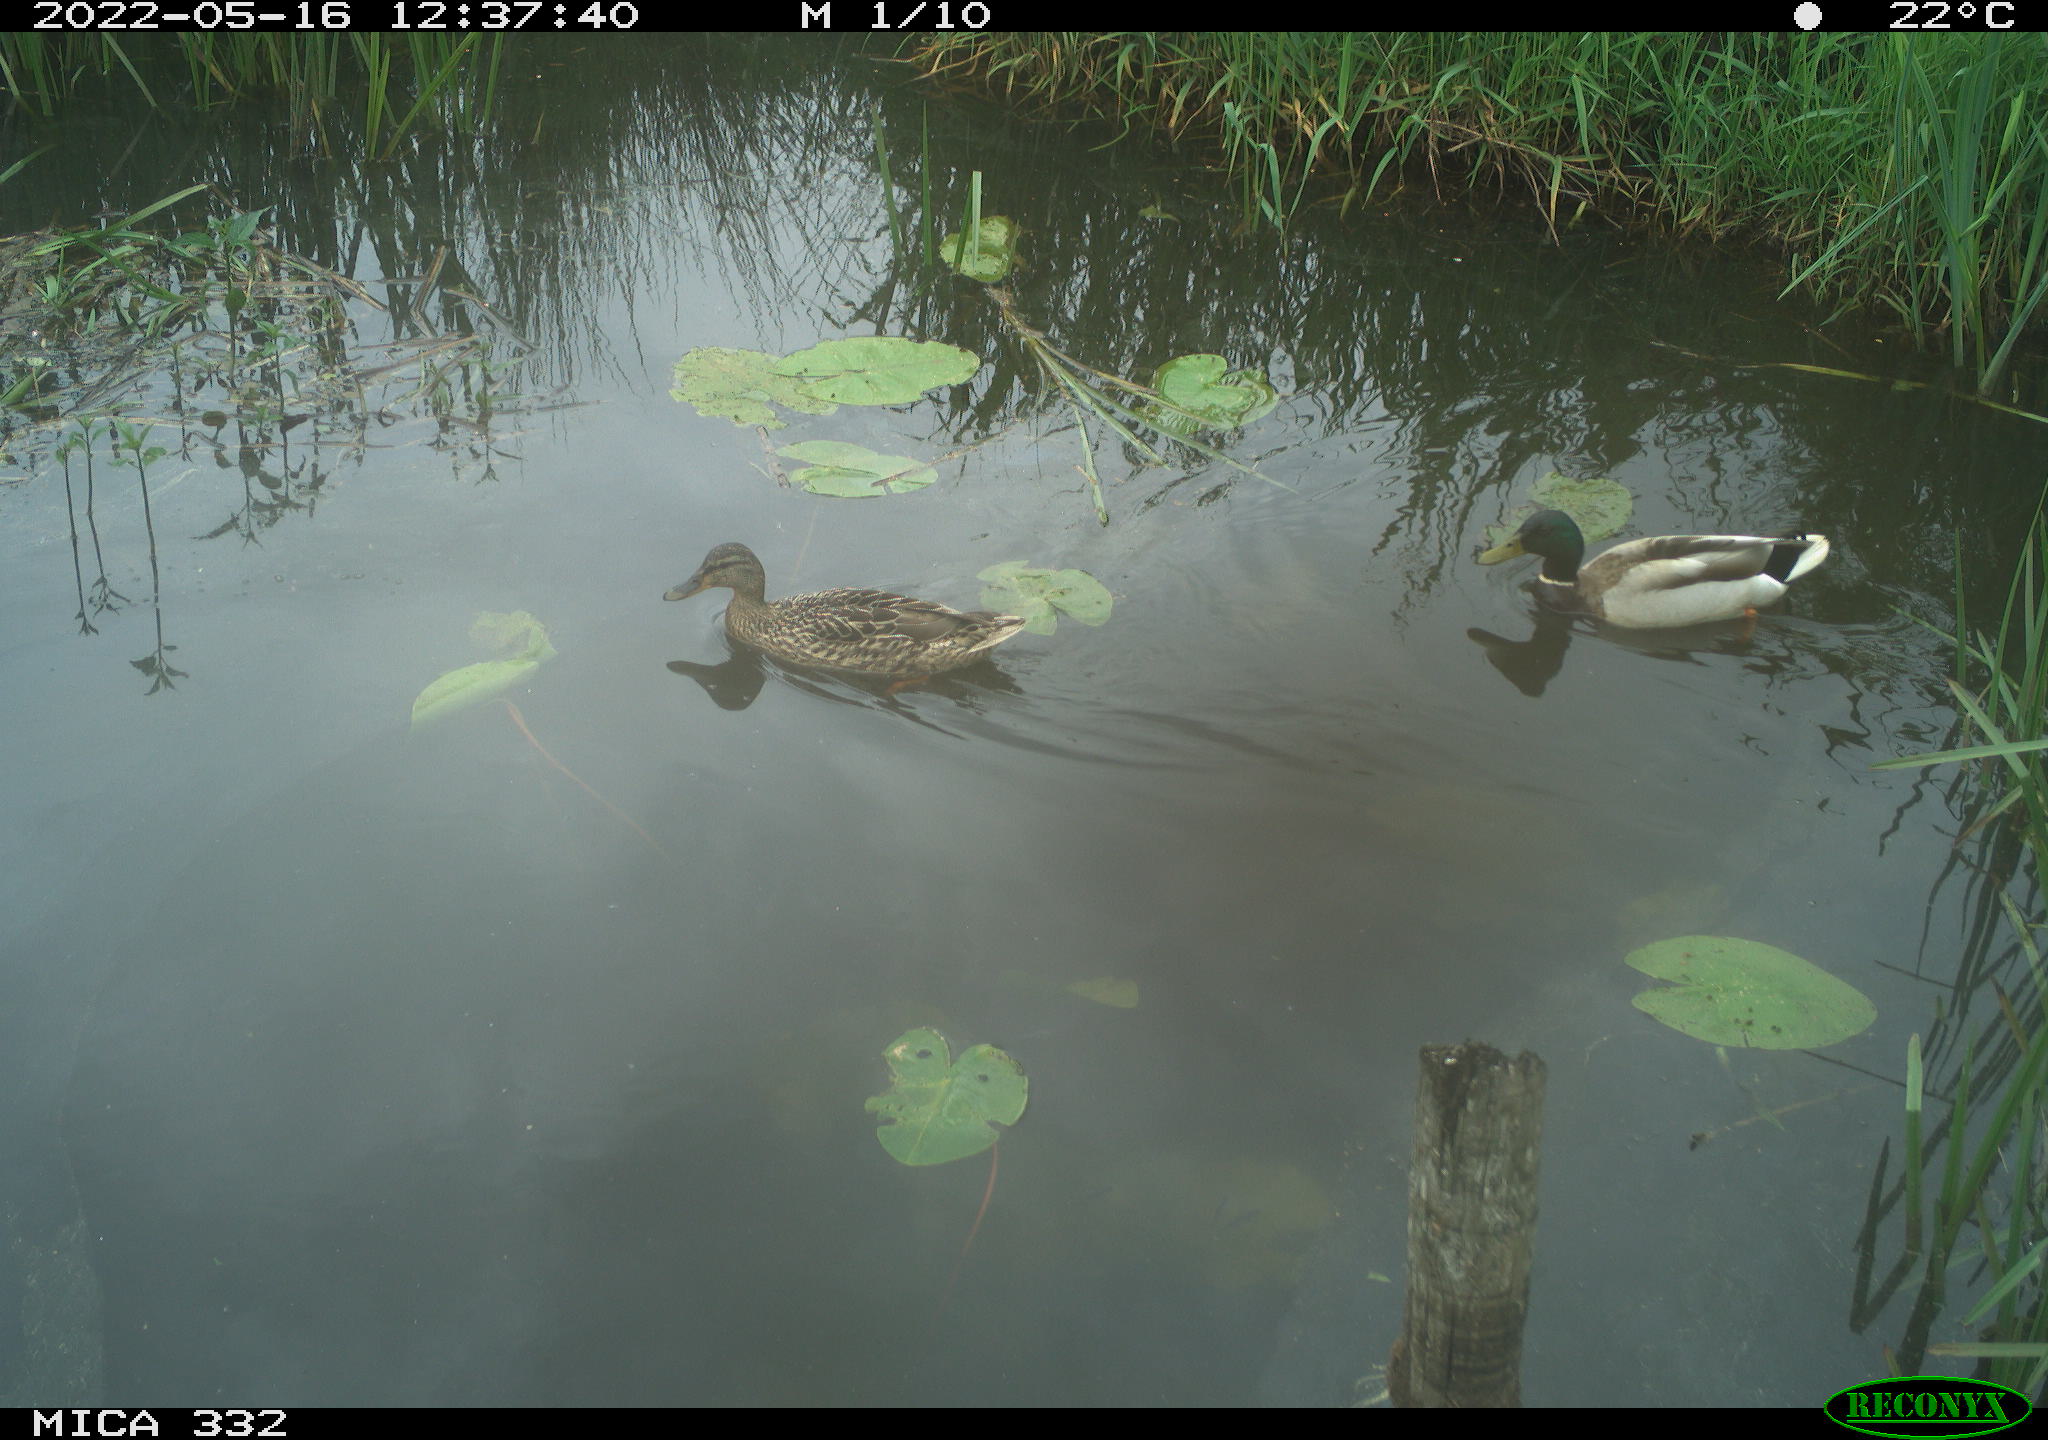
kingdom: Animalia
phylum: Chordata
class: Aves
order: Anseriformes
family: Anatidae
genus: Anas
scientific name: Anas platyrhynchos
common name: Mallard
